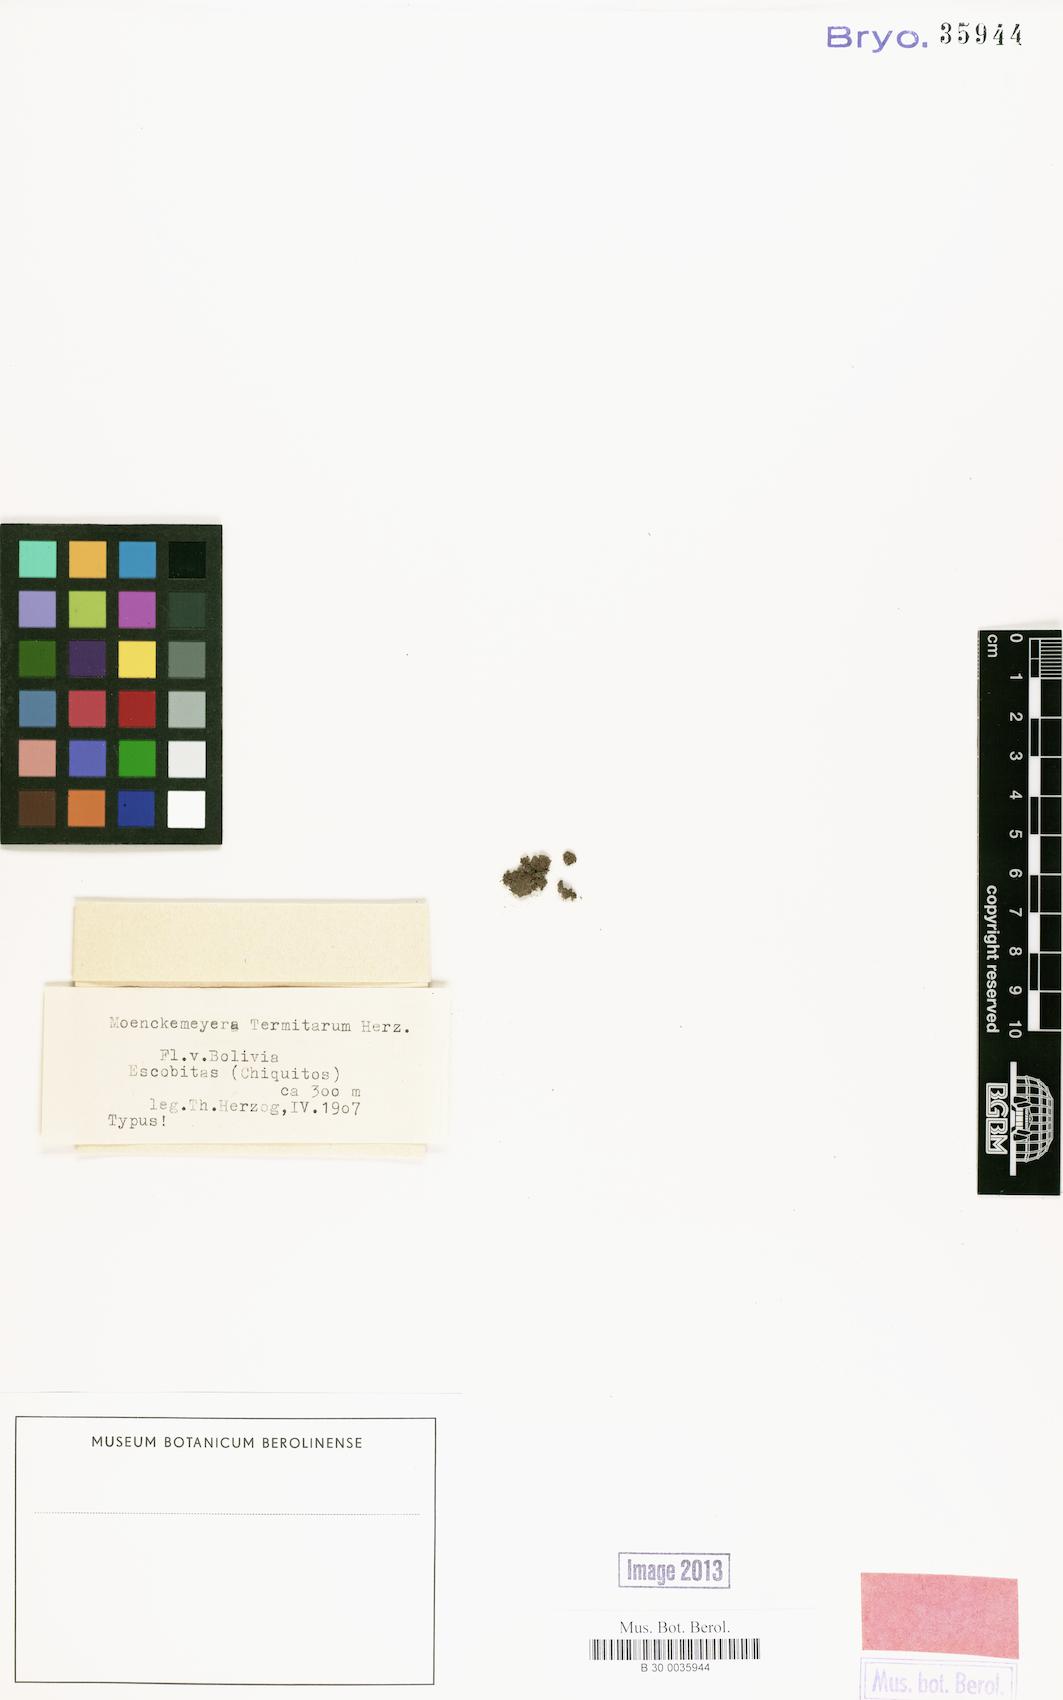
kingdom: Plantae
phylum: Bryophyta
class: Bryopsida
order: Dicranales
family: Fissidentaceae
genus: Fissidens
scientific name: Fissidens
